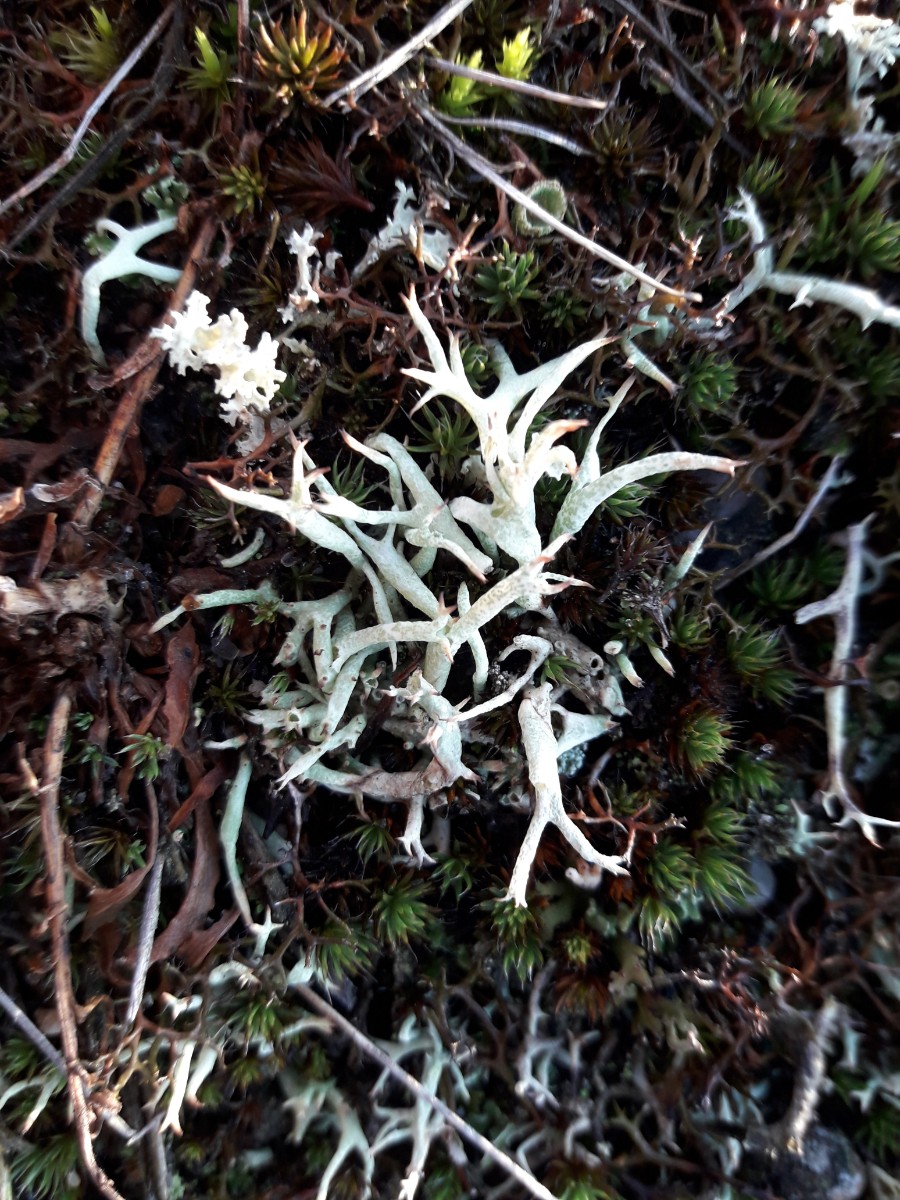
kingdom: Fungi
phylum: Ascomycota
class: Lecanoromycetes
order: Lecanorales
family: Cladoniaceae
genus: Cladonia
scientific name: Cladonia uncialis
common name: pigget bægerlav
